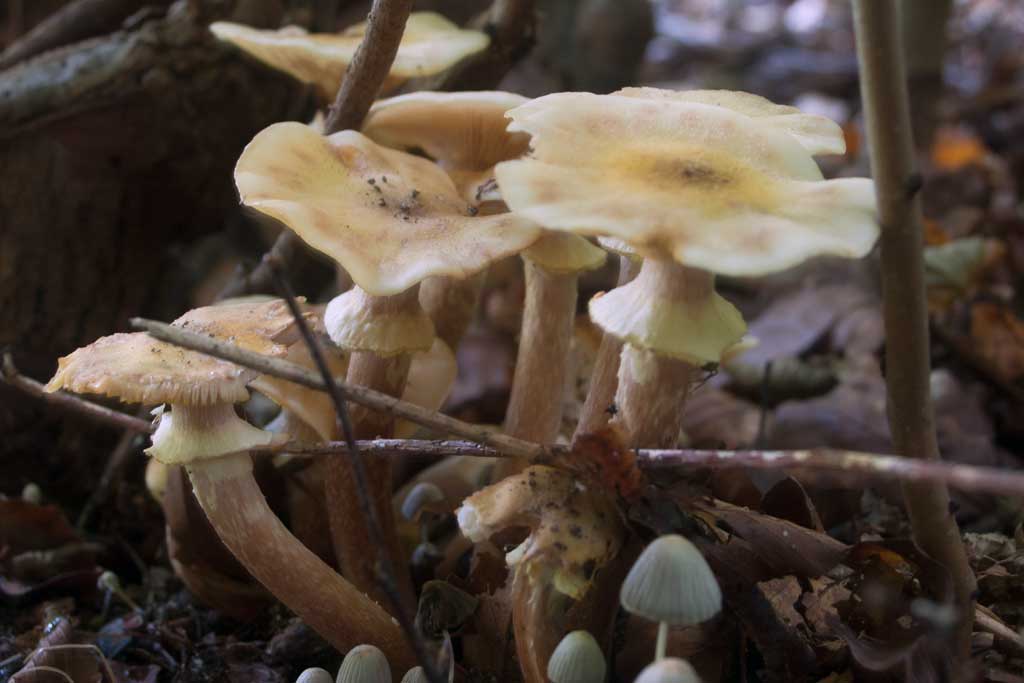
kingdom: Fungi
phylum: Basidiomycota
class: Agaricomycetes
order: Agaricales
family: Physalacriaceae
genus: Armillaria
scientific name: Armillaria mellea
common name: ægte honningsvamp
